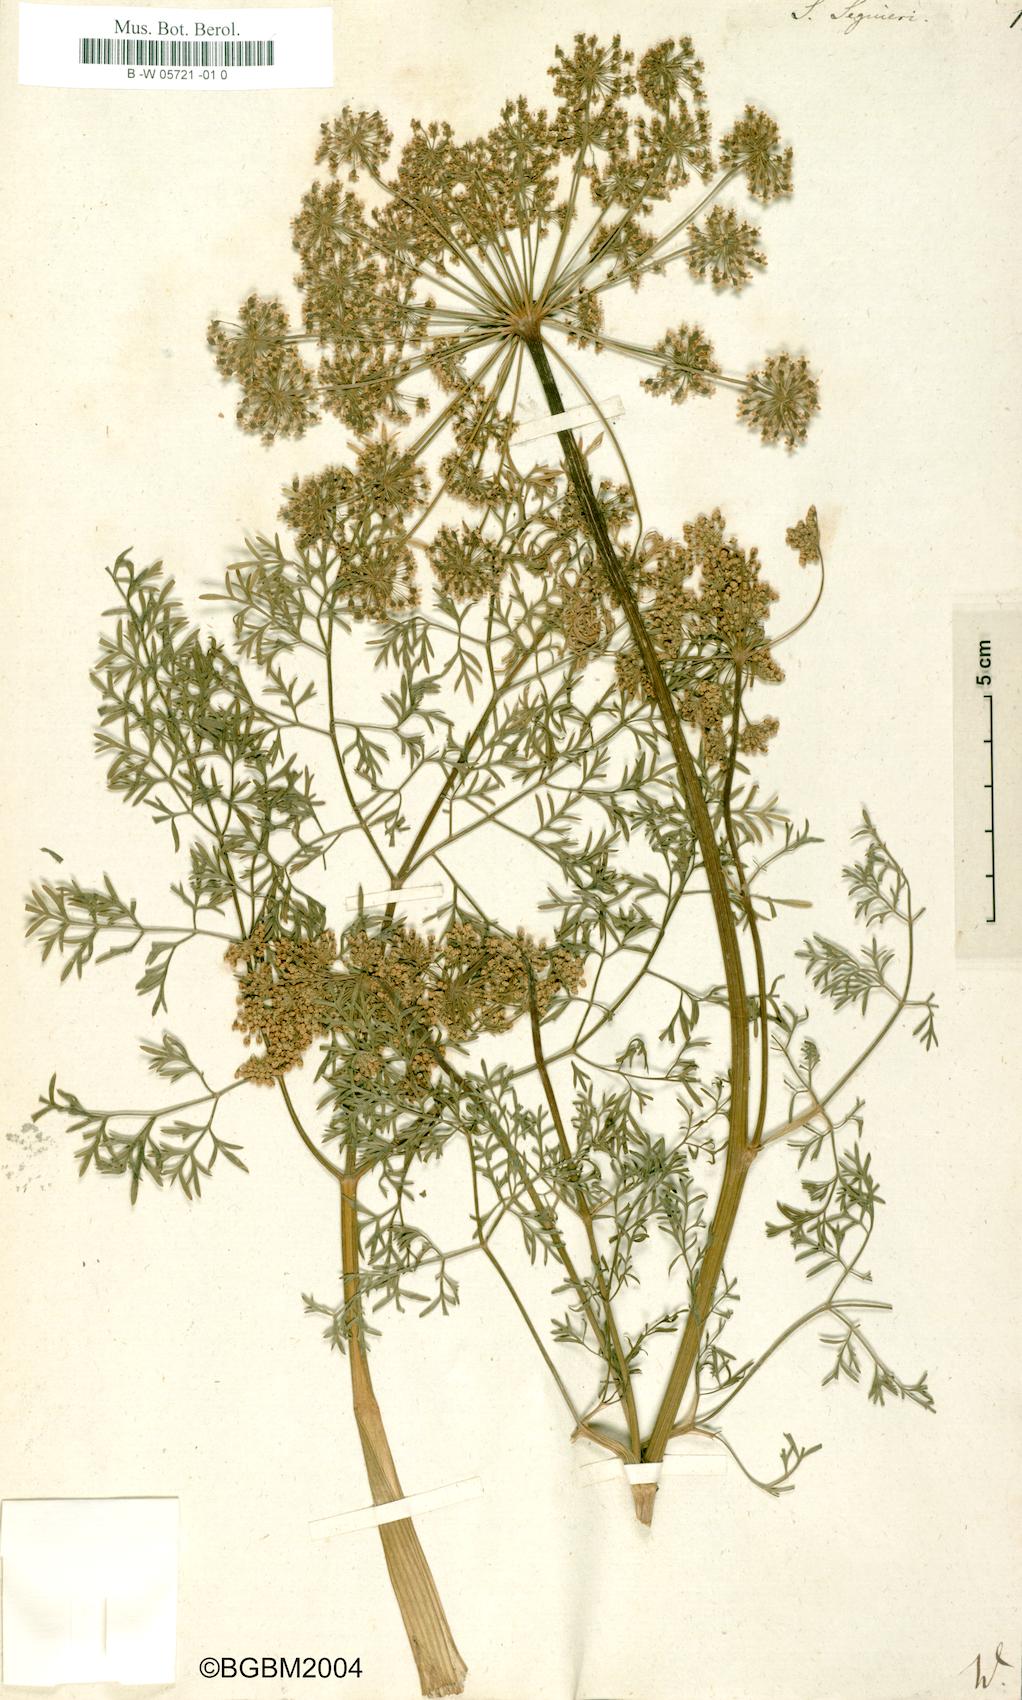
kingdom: Plantae
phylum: Tracheophyta
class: Magnoliopsida
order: Apiales
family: Apiaceae
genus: Coristospermum
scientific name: Coristospermum lucidum
